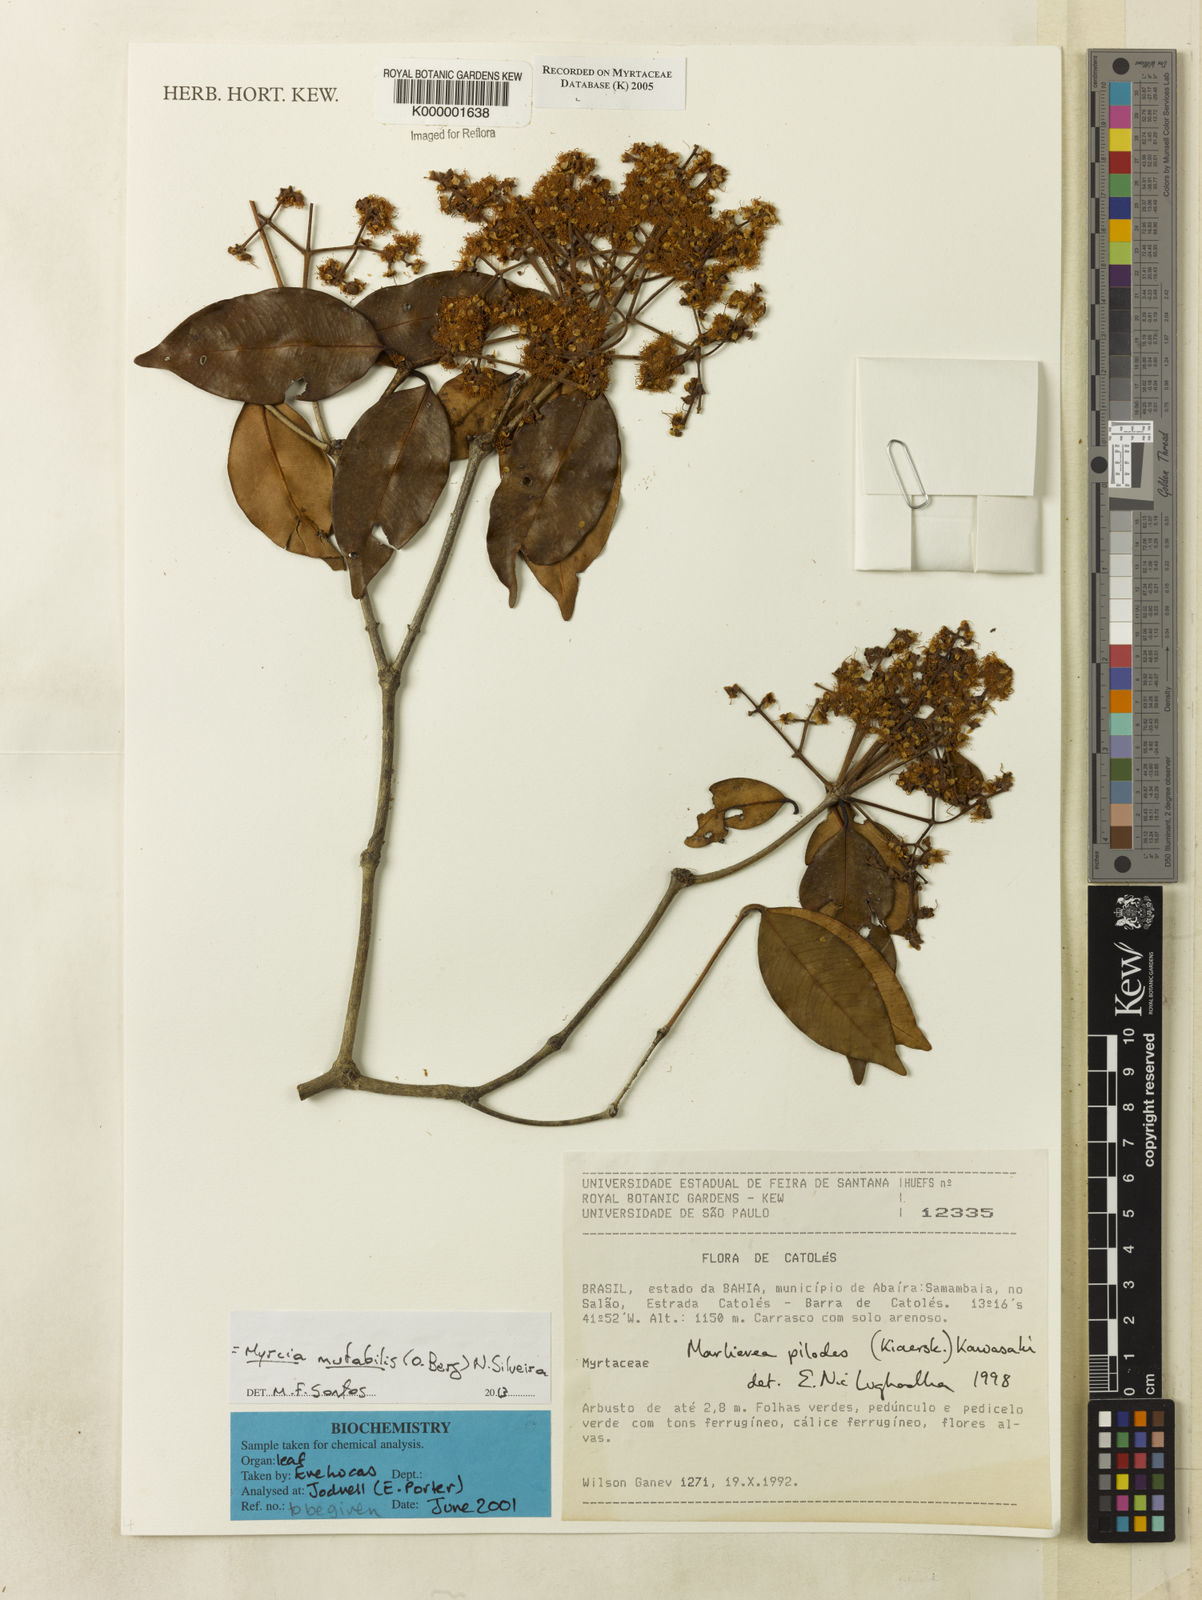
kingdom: Plantae
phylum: Tracheophyta
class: Magnoliopsida
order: Myrtales
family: Myrtaceae
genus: Myrcia
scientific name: Myrcia mutabilis
